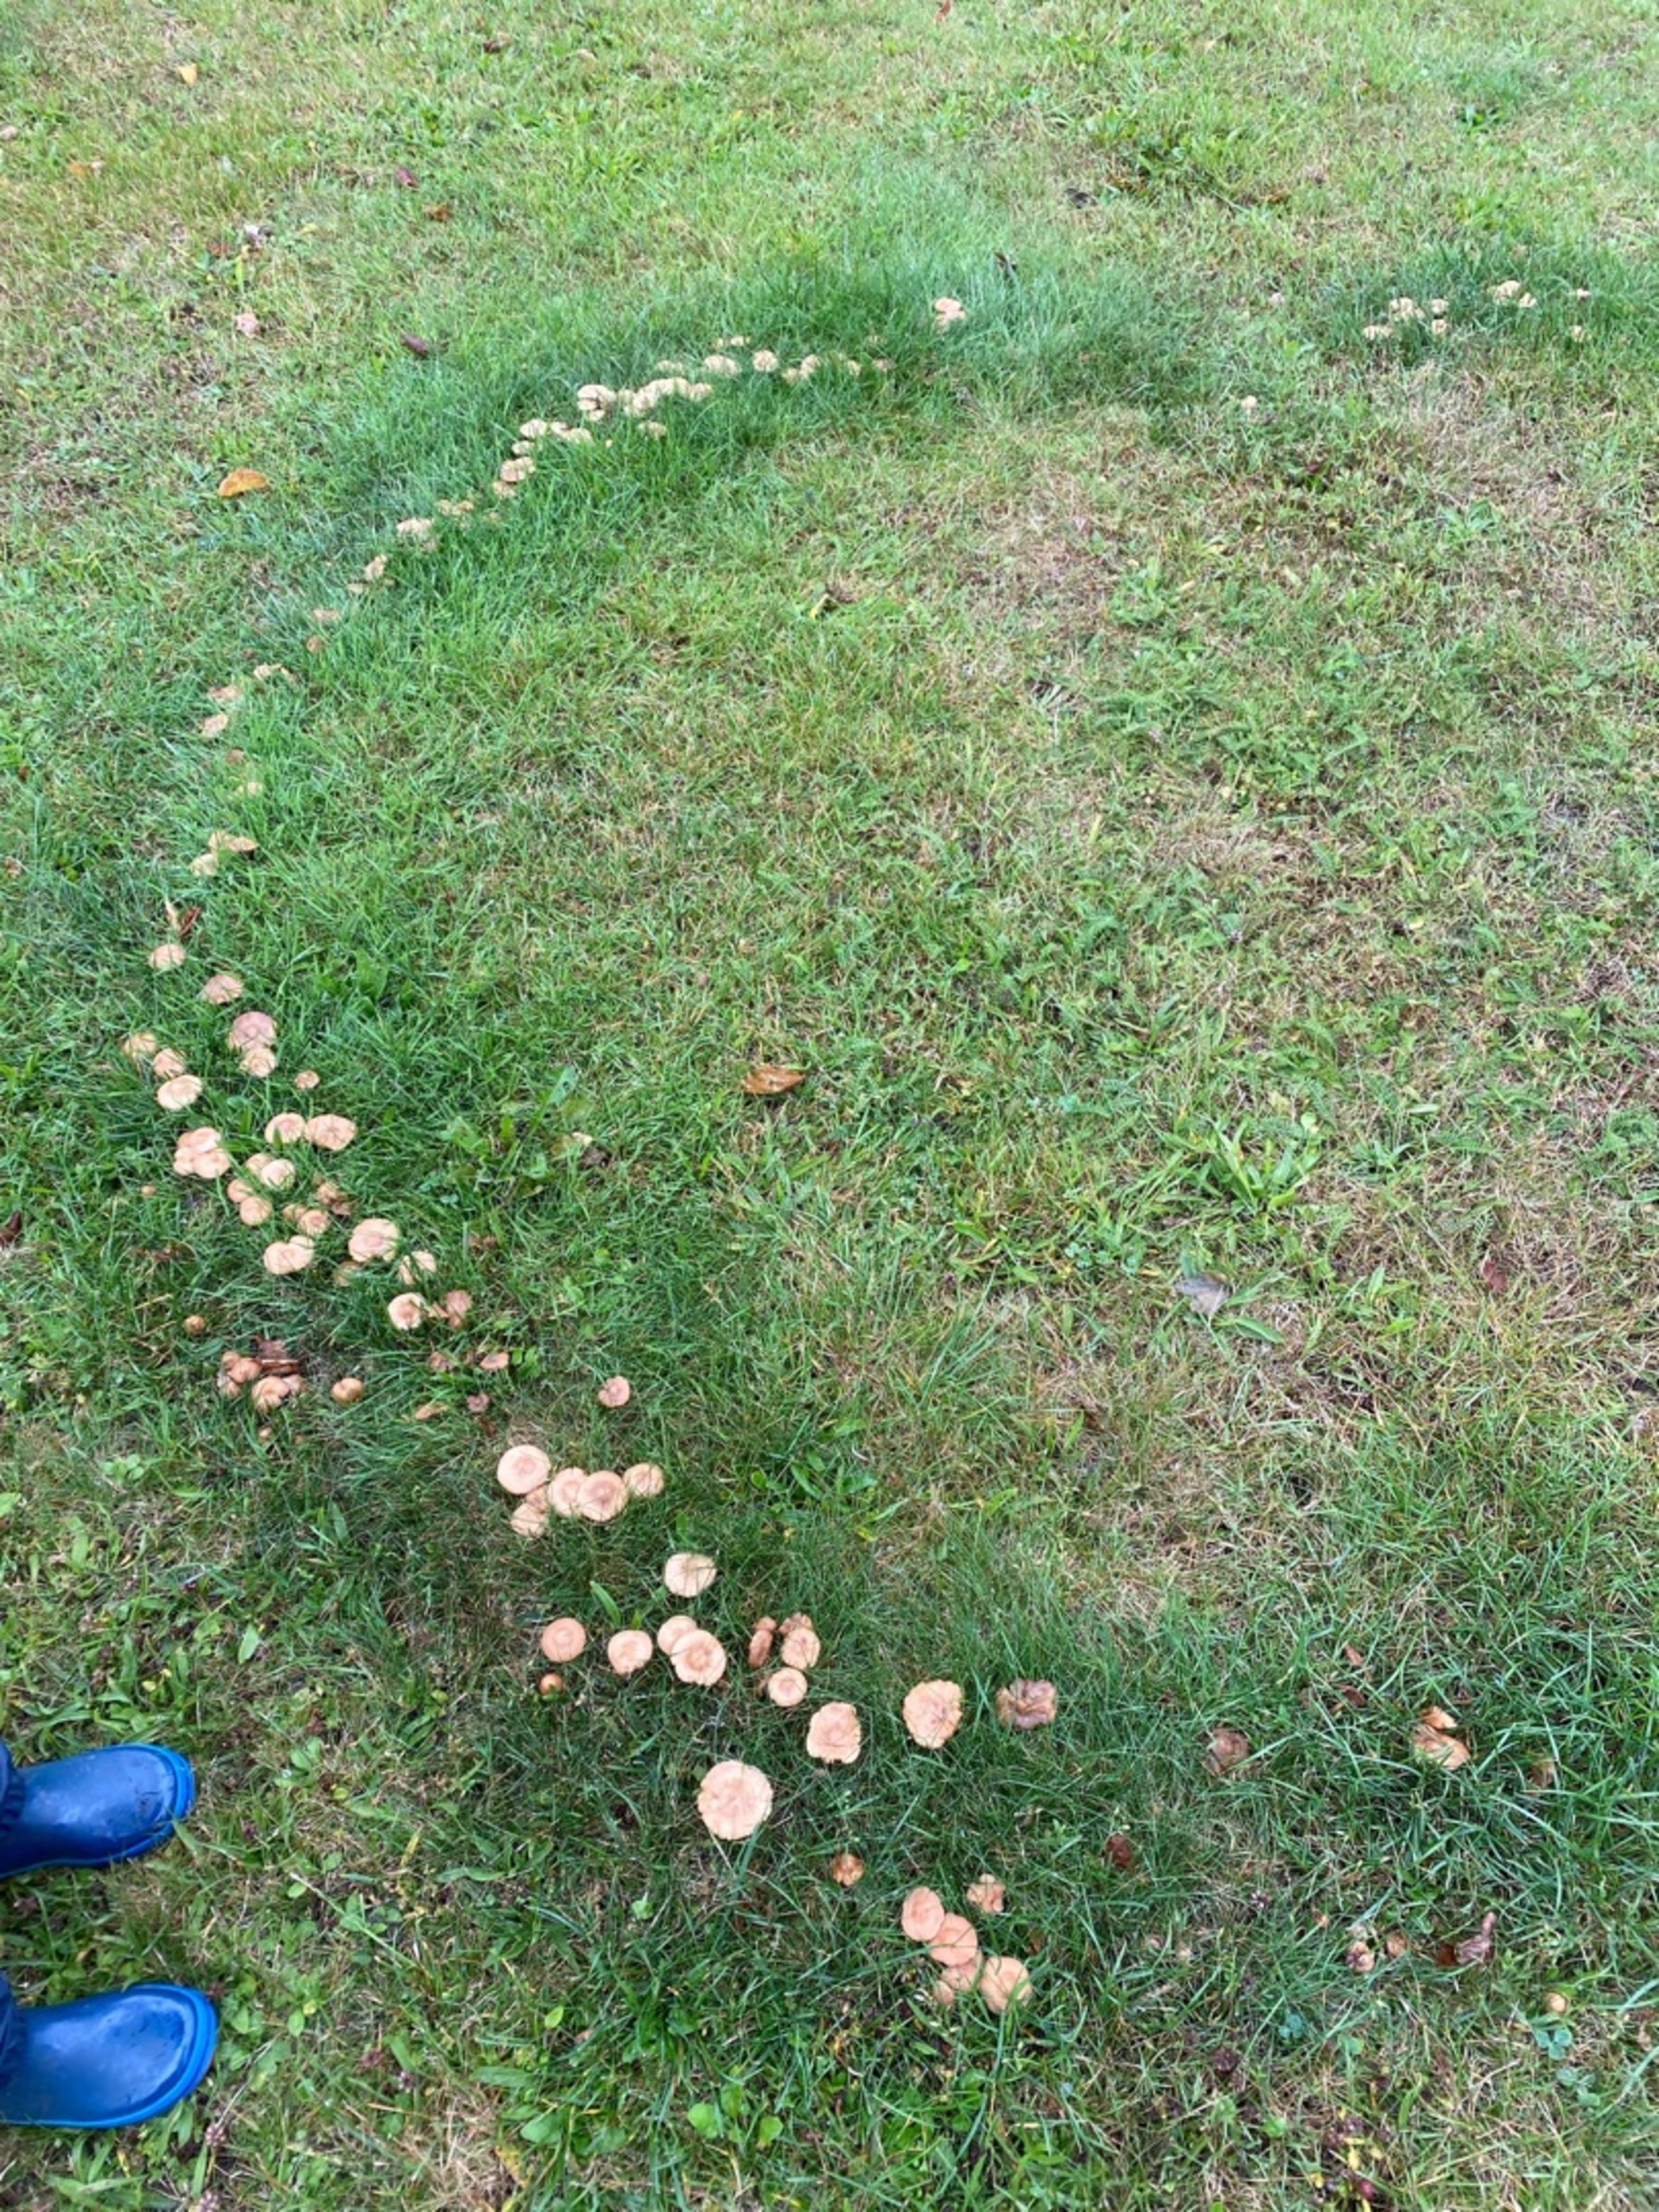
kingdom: Fungi
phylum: Basidiomycota
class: Agaricomycetes
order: Agaricales
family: Marasmiaceae
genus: Marasmius
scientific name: Marasmius oreades
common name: Elledans-bruskhat
